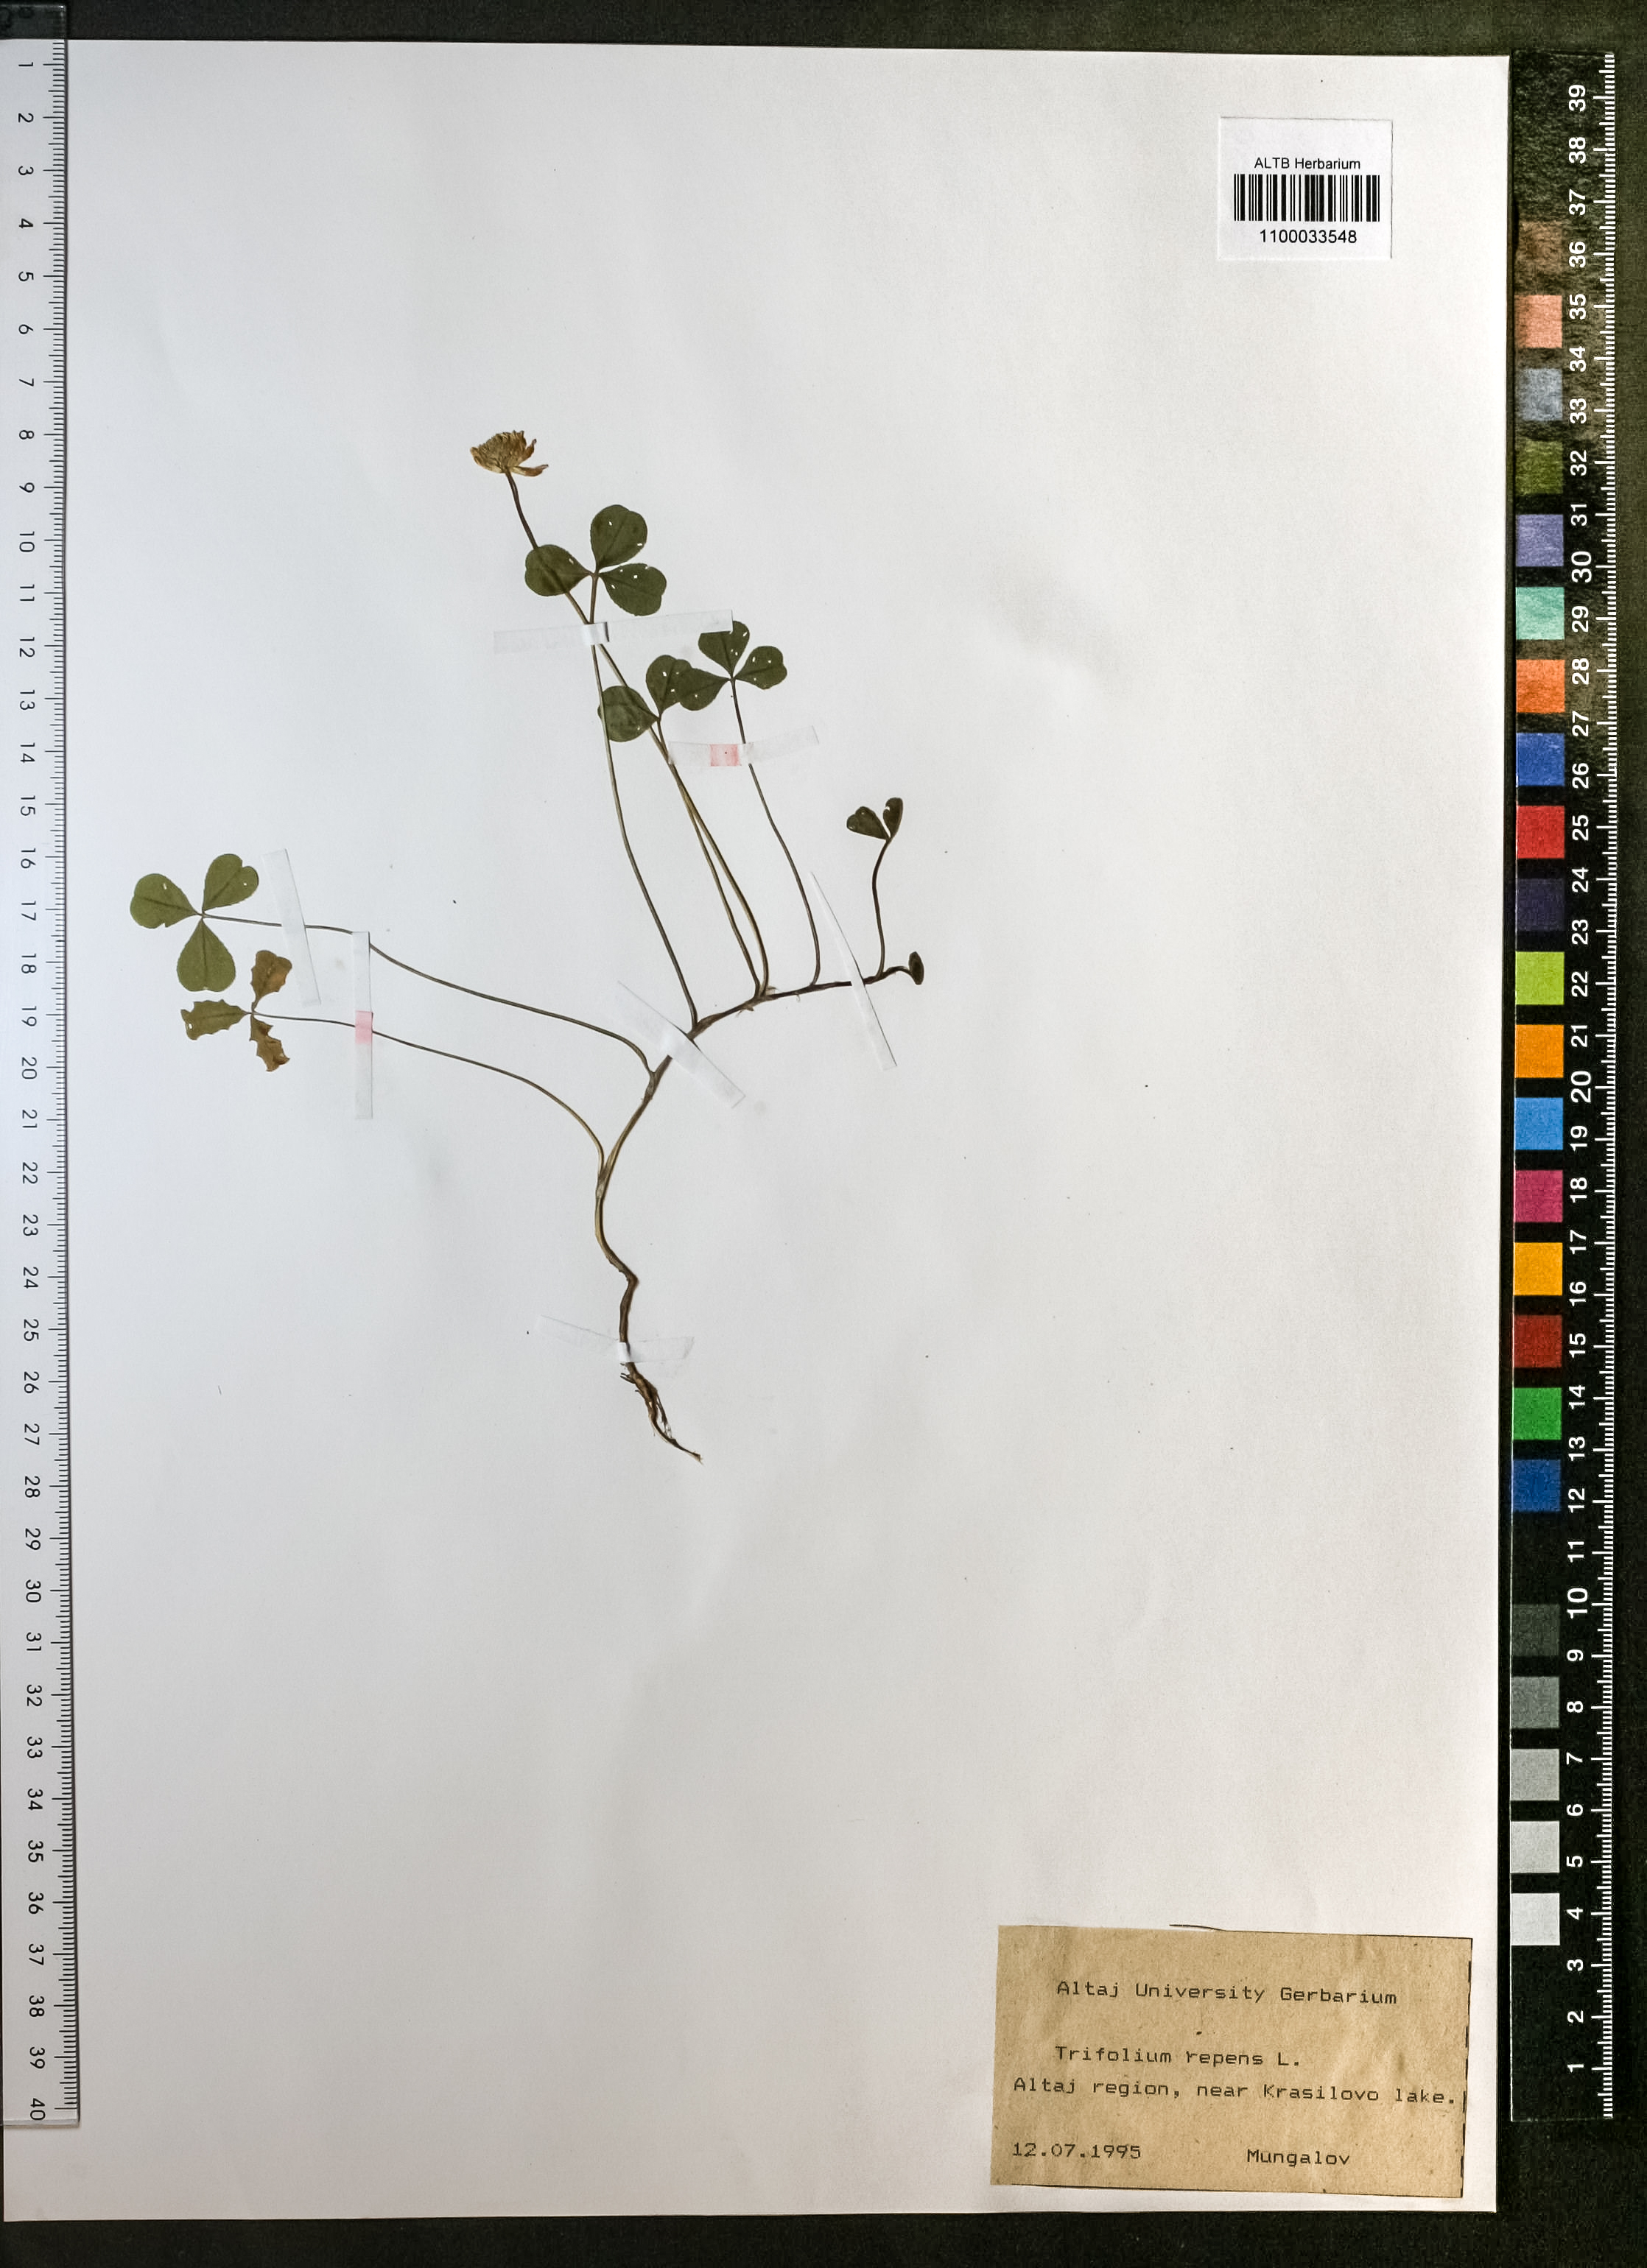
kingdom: Plantae
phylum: Tracheophyta
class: Magnoliopsida
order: Fabales
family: Fabaceae
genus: Trifolium
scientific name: Trifolium repens
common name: White clover
